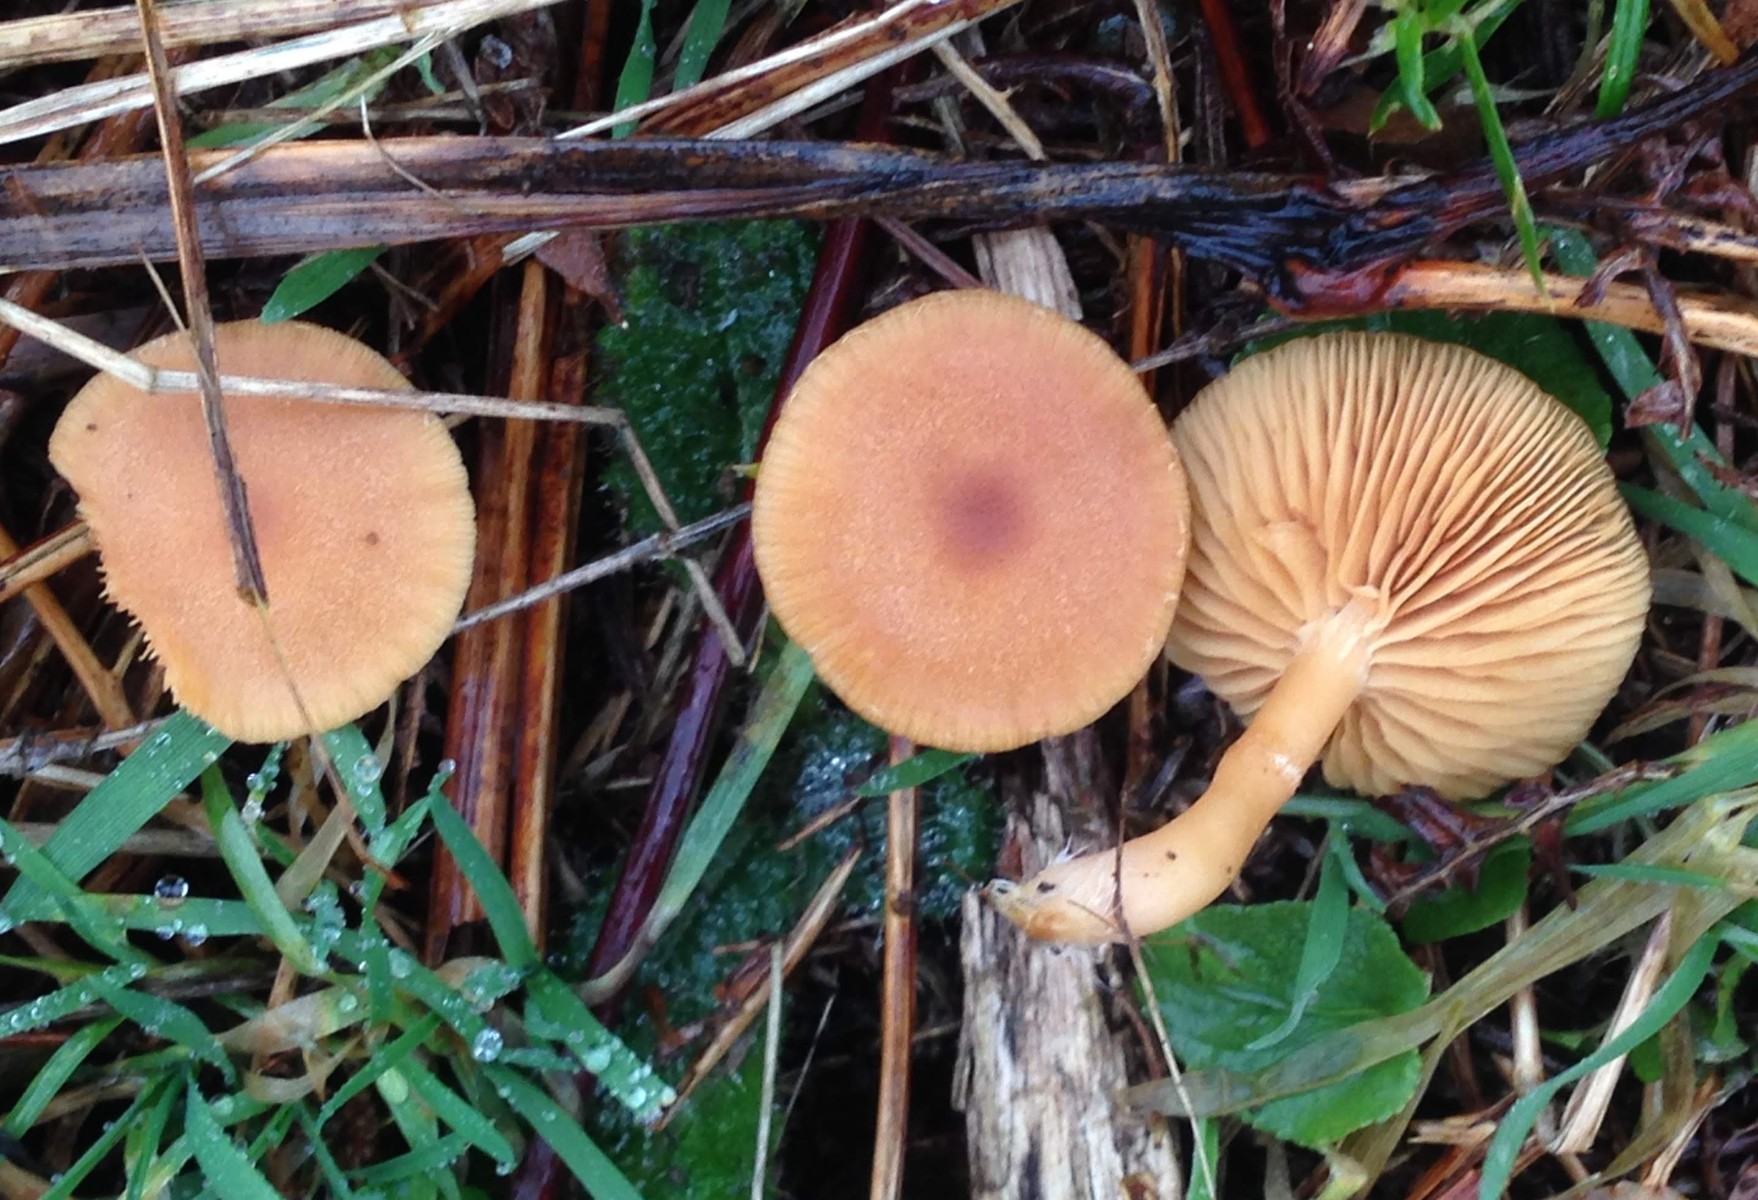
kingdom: Fungi
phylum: Basidiomycota
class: Agaricomycetes
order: Agaricales
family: Tubariaceae
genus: Tubaria
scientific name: Tubaria furfuracea
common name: kliddet fnughat
